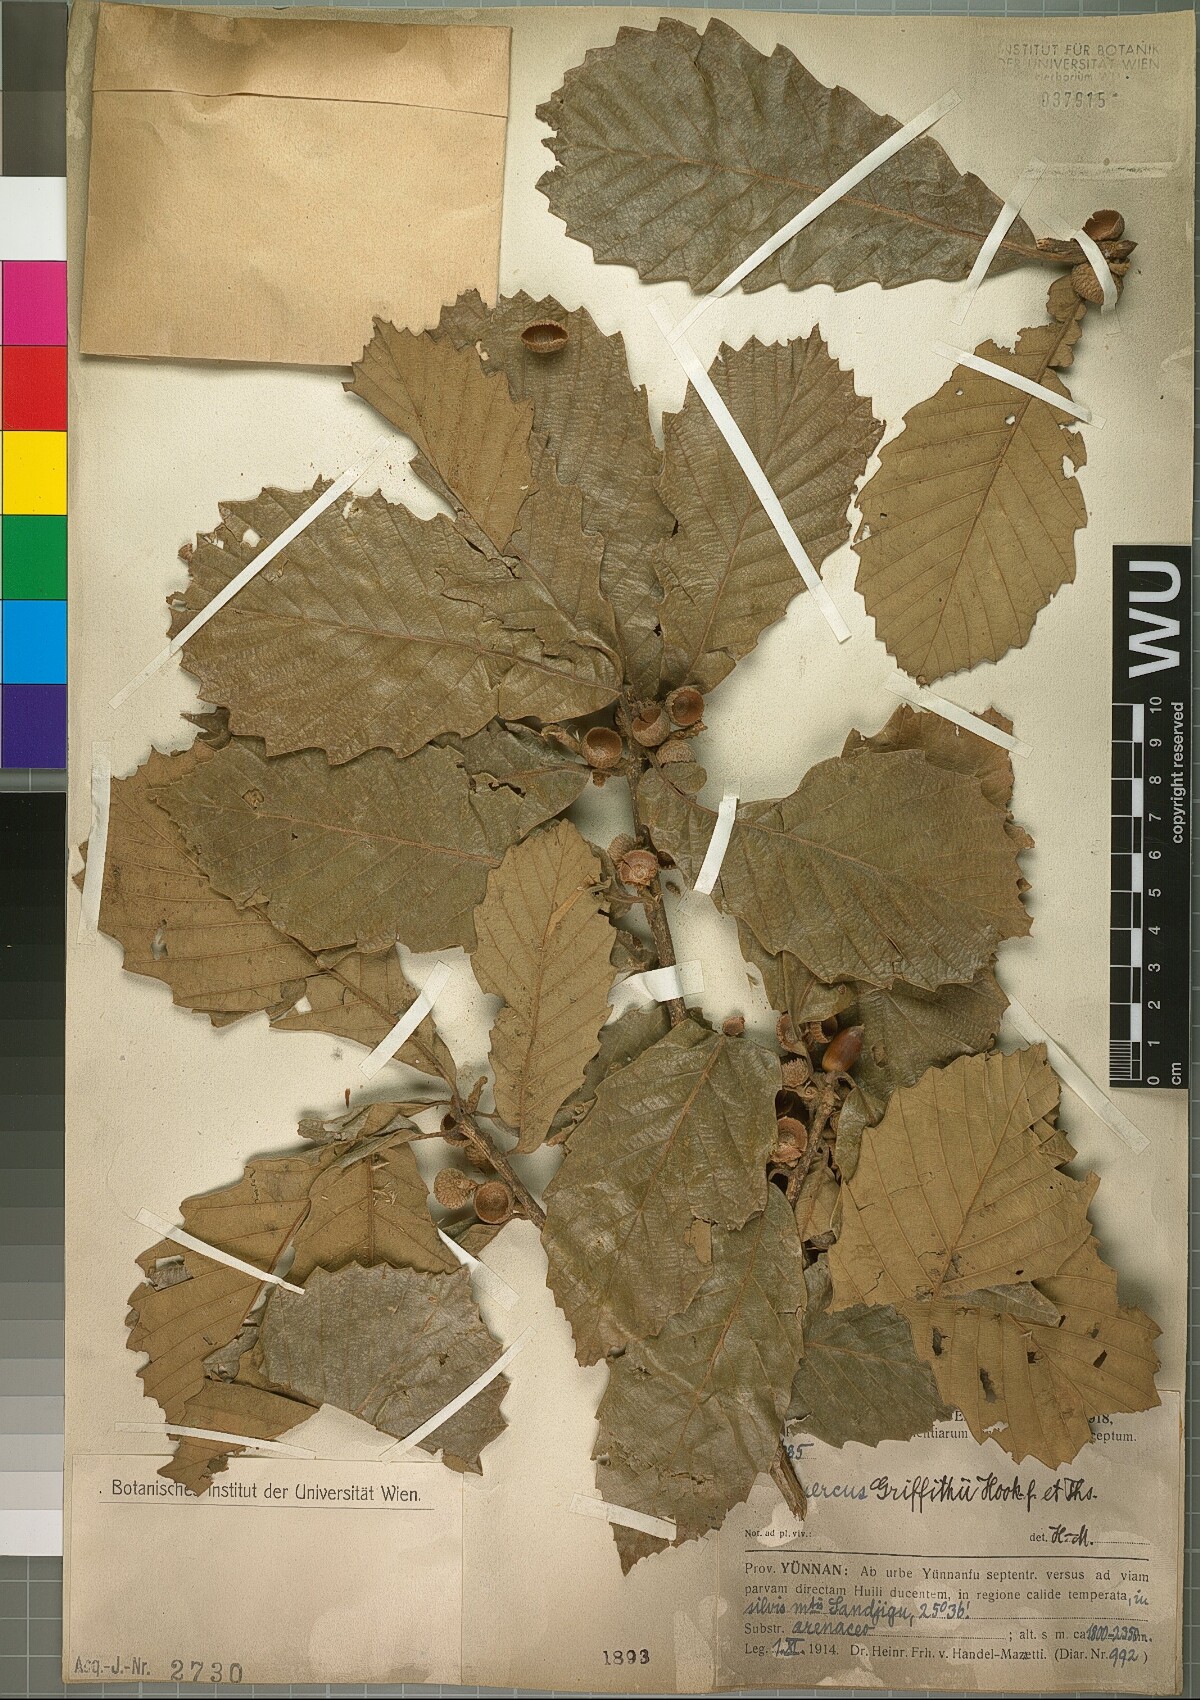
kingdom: Plantae
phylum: Tracheophyta
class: Magnoliopsida
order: Fagales
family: Fagaceae
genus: Quercus
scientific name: Quercus griffithii
